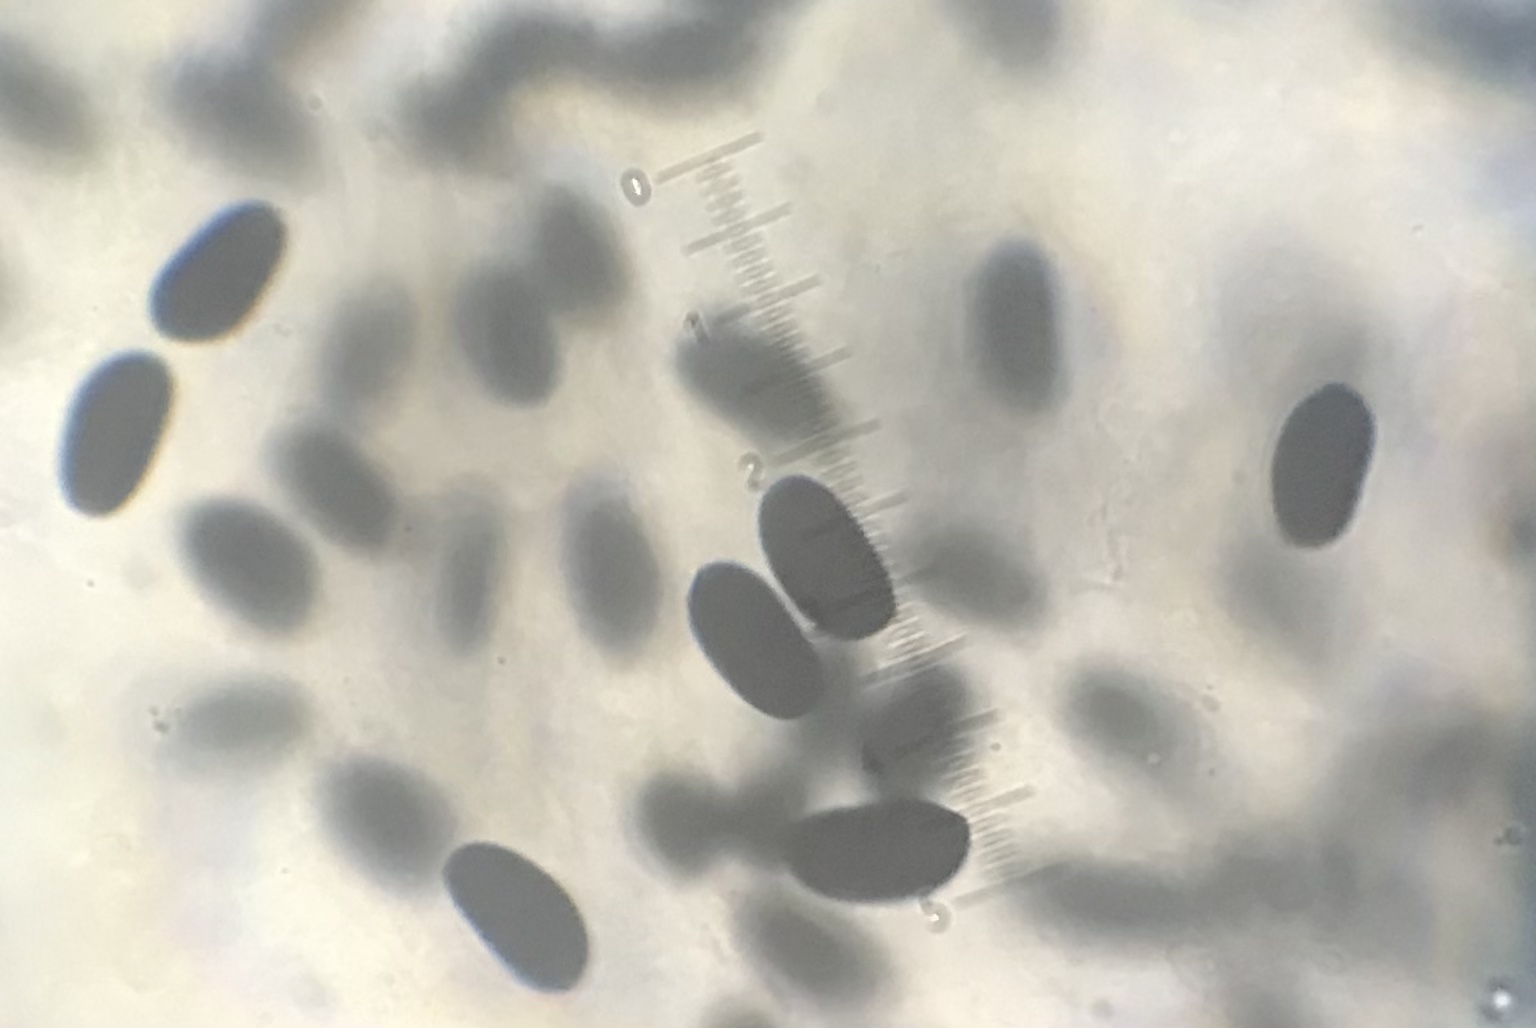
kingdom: Fungi
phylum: Basidiomycota
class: Agaricomycetes
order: Agaricales
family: Psathyrellaceae
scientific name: Psathyrellaceae
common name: mørkhatfamilien
